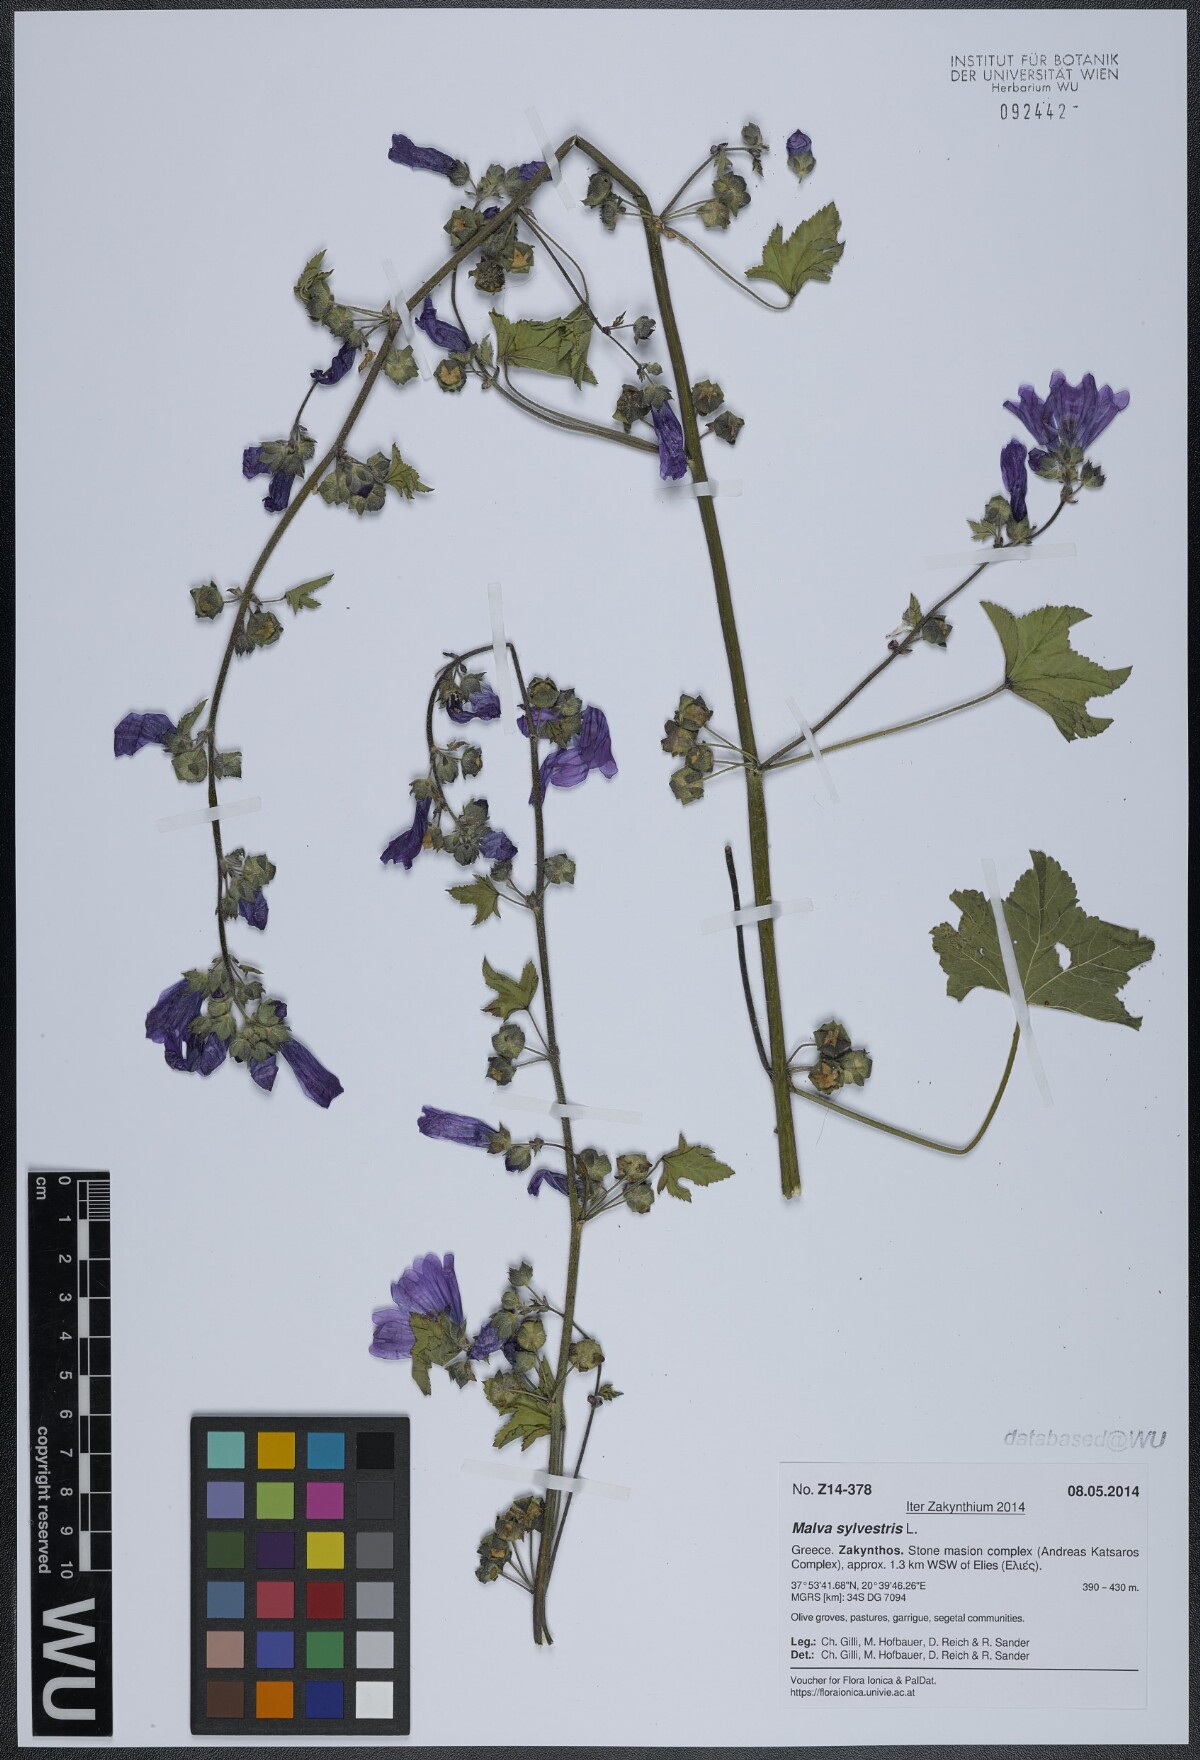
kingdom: Plantae
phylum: Tracheophyta
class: Magnoliopsida
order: Malvales
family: Malvaceae
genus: Malva
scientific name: Malva sylvestris
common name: Common mallow
